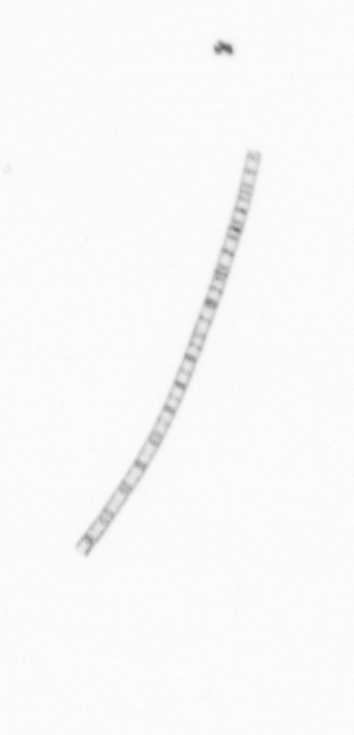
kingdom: Chromista
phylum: Ochrophyta
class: Bacillariophyceae
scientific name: Bacillariophyceae
